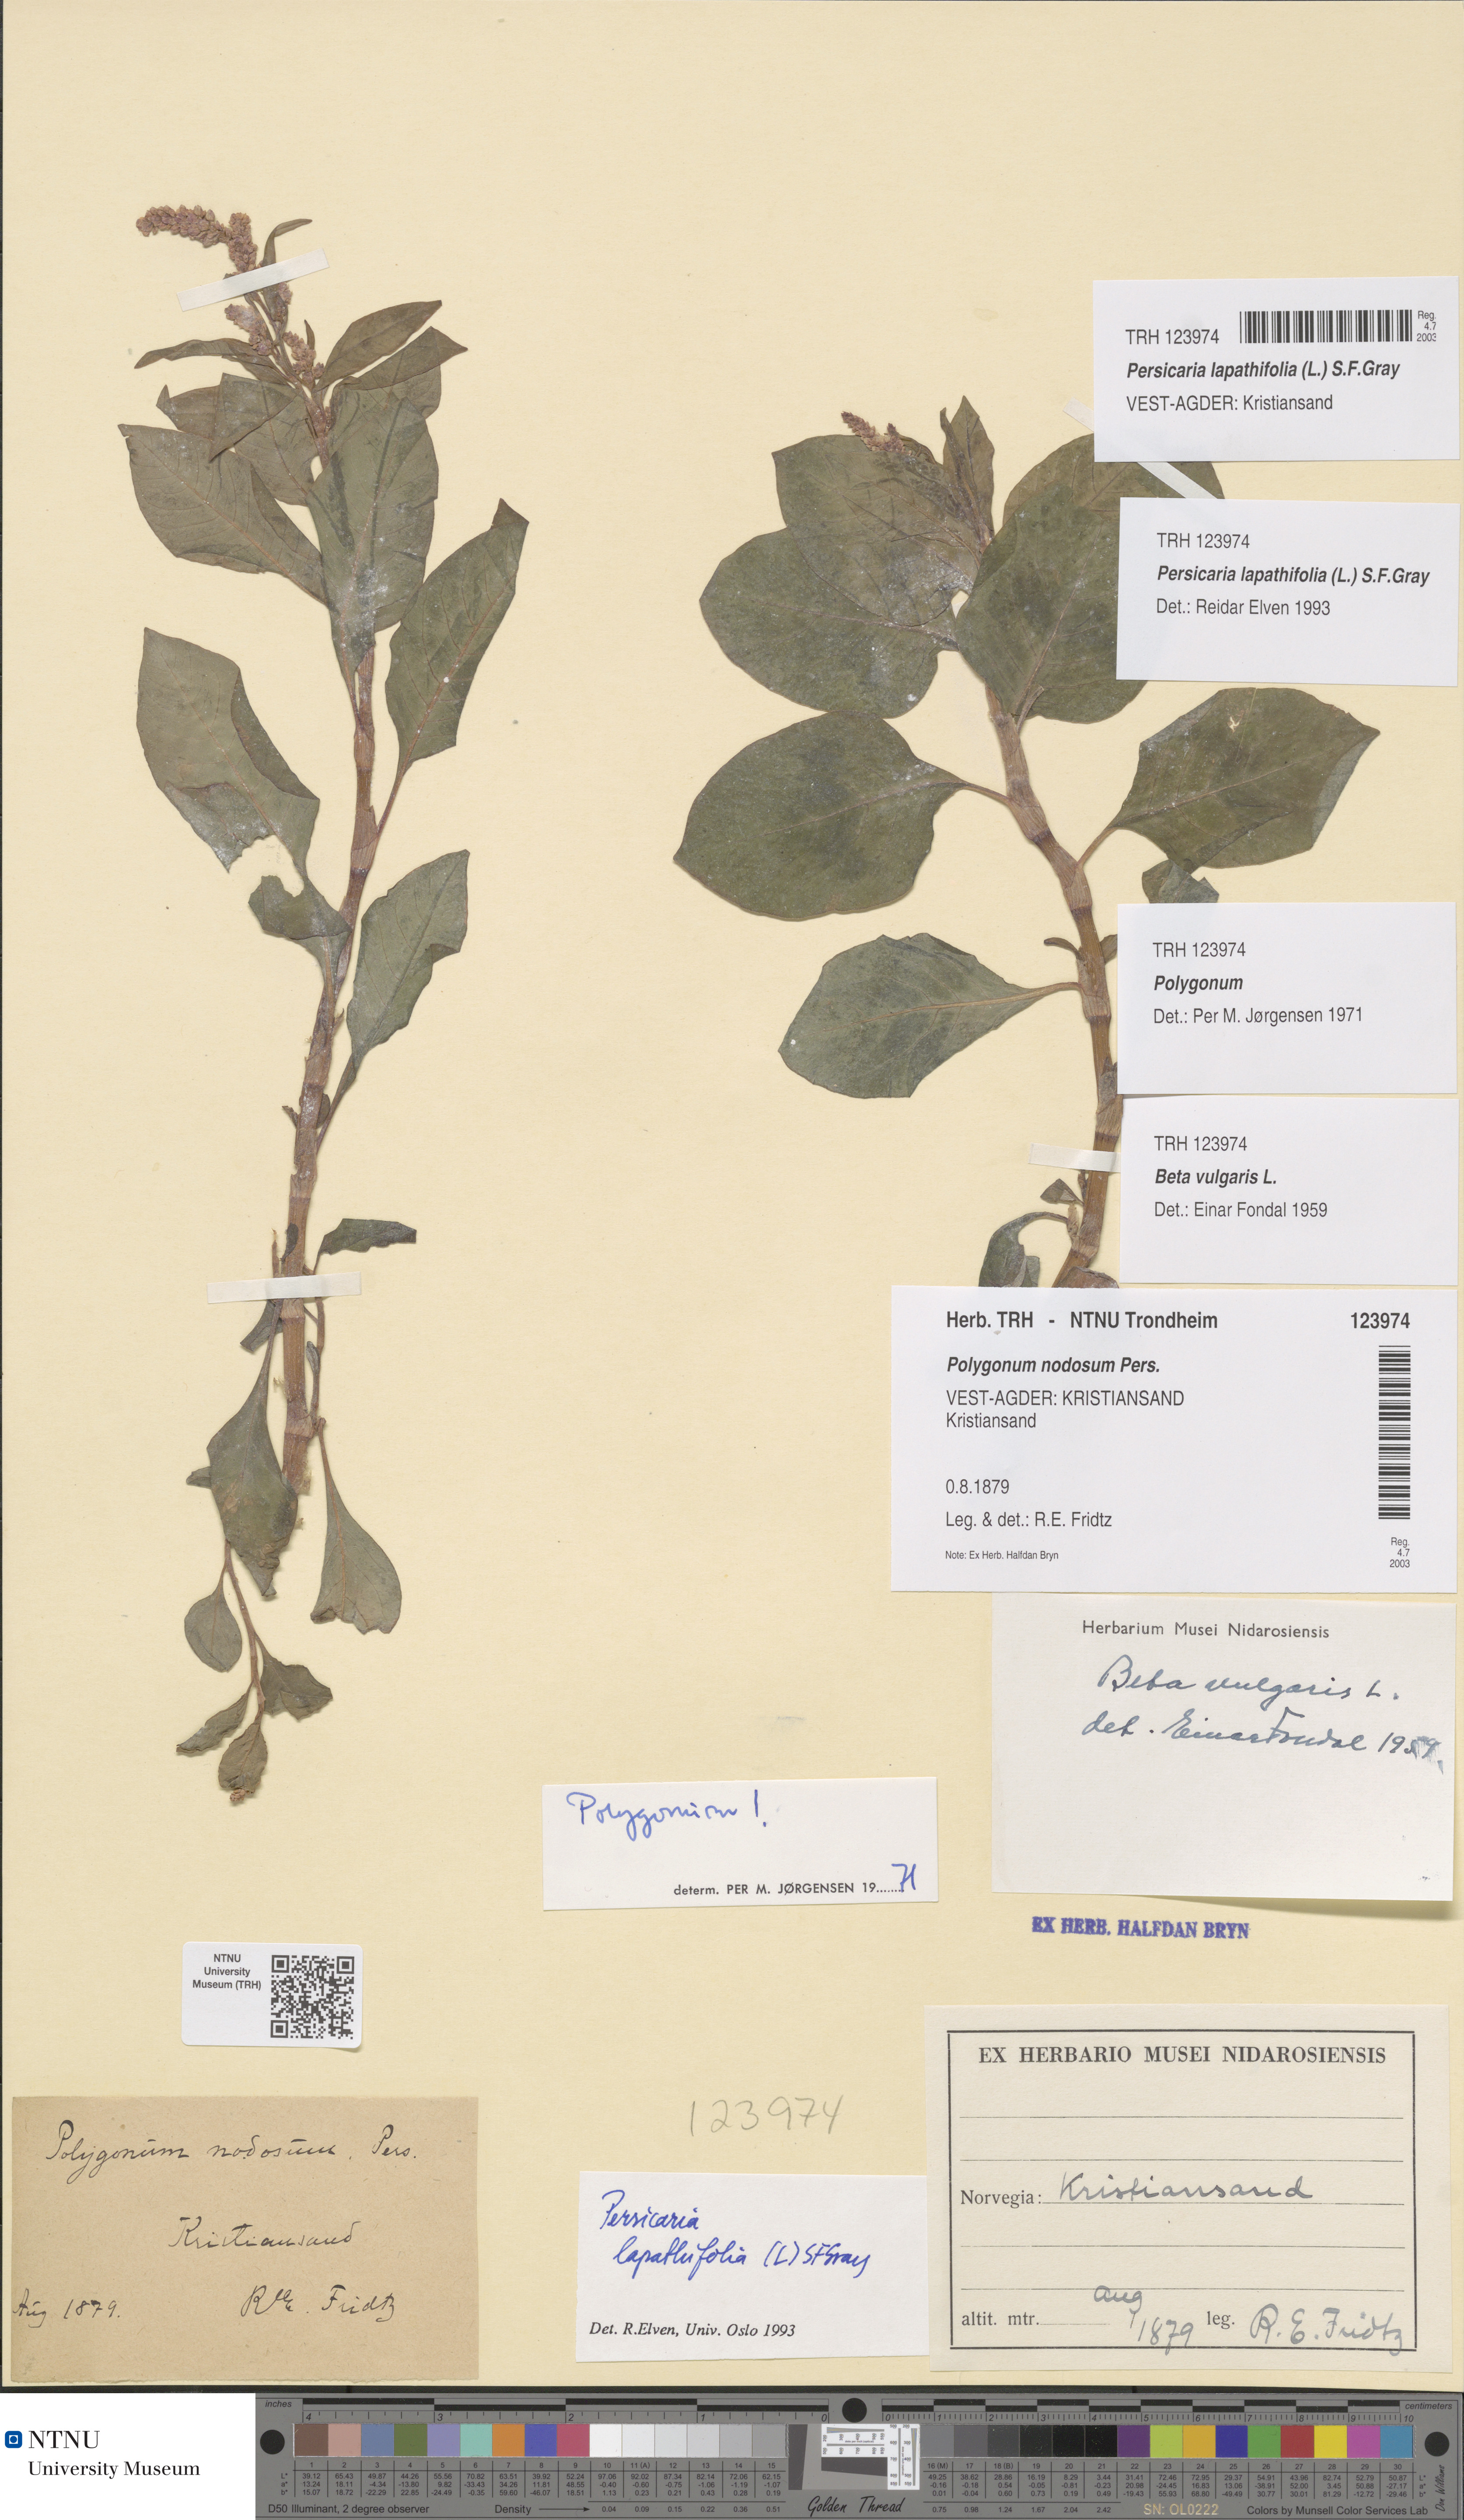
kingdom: Plantae
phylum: Tracheophyta
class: Magnoliopsida
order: Caryophyllales
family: Polygonaceae
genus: Persicaria
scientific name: Persicaria lapathifolia
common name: Curlytop knotweed
